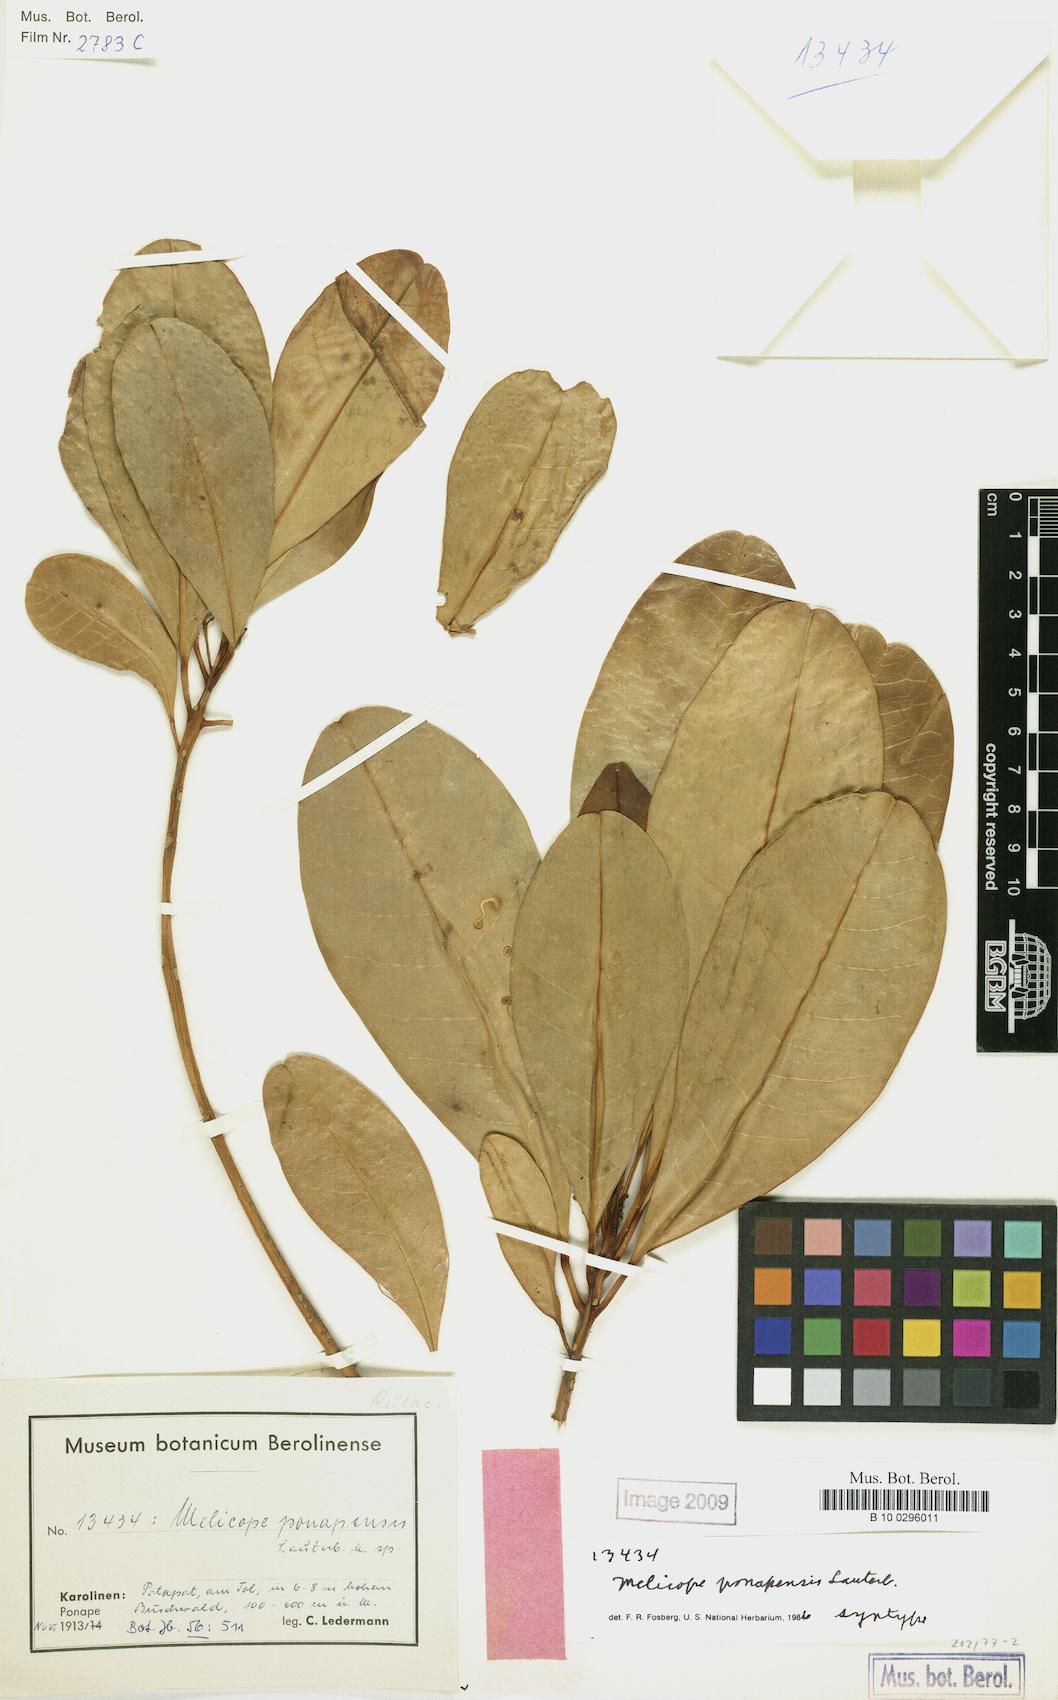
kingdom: Plantae
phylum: Tracheophyta
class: Magnoliopsida
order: Sapindales
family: Rutaceae
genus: Melicope
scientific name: Melicope ponapensis
